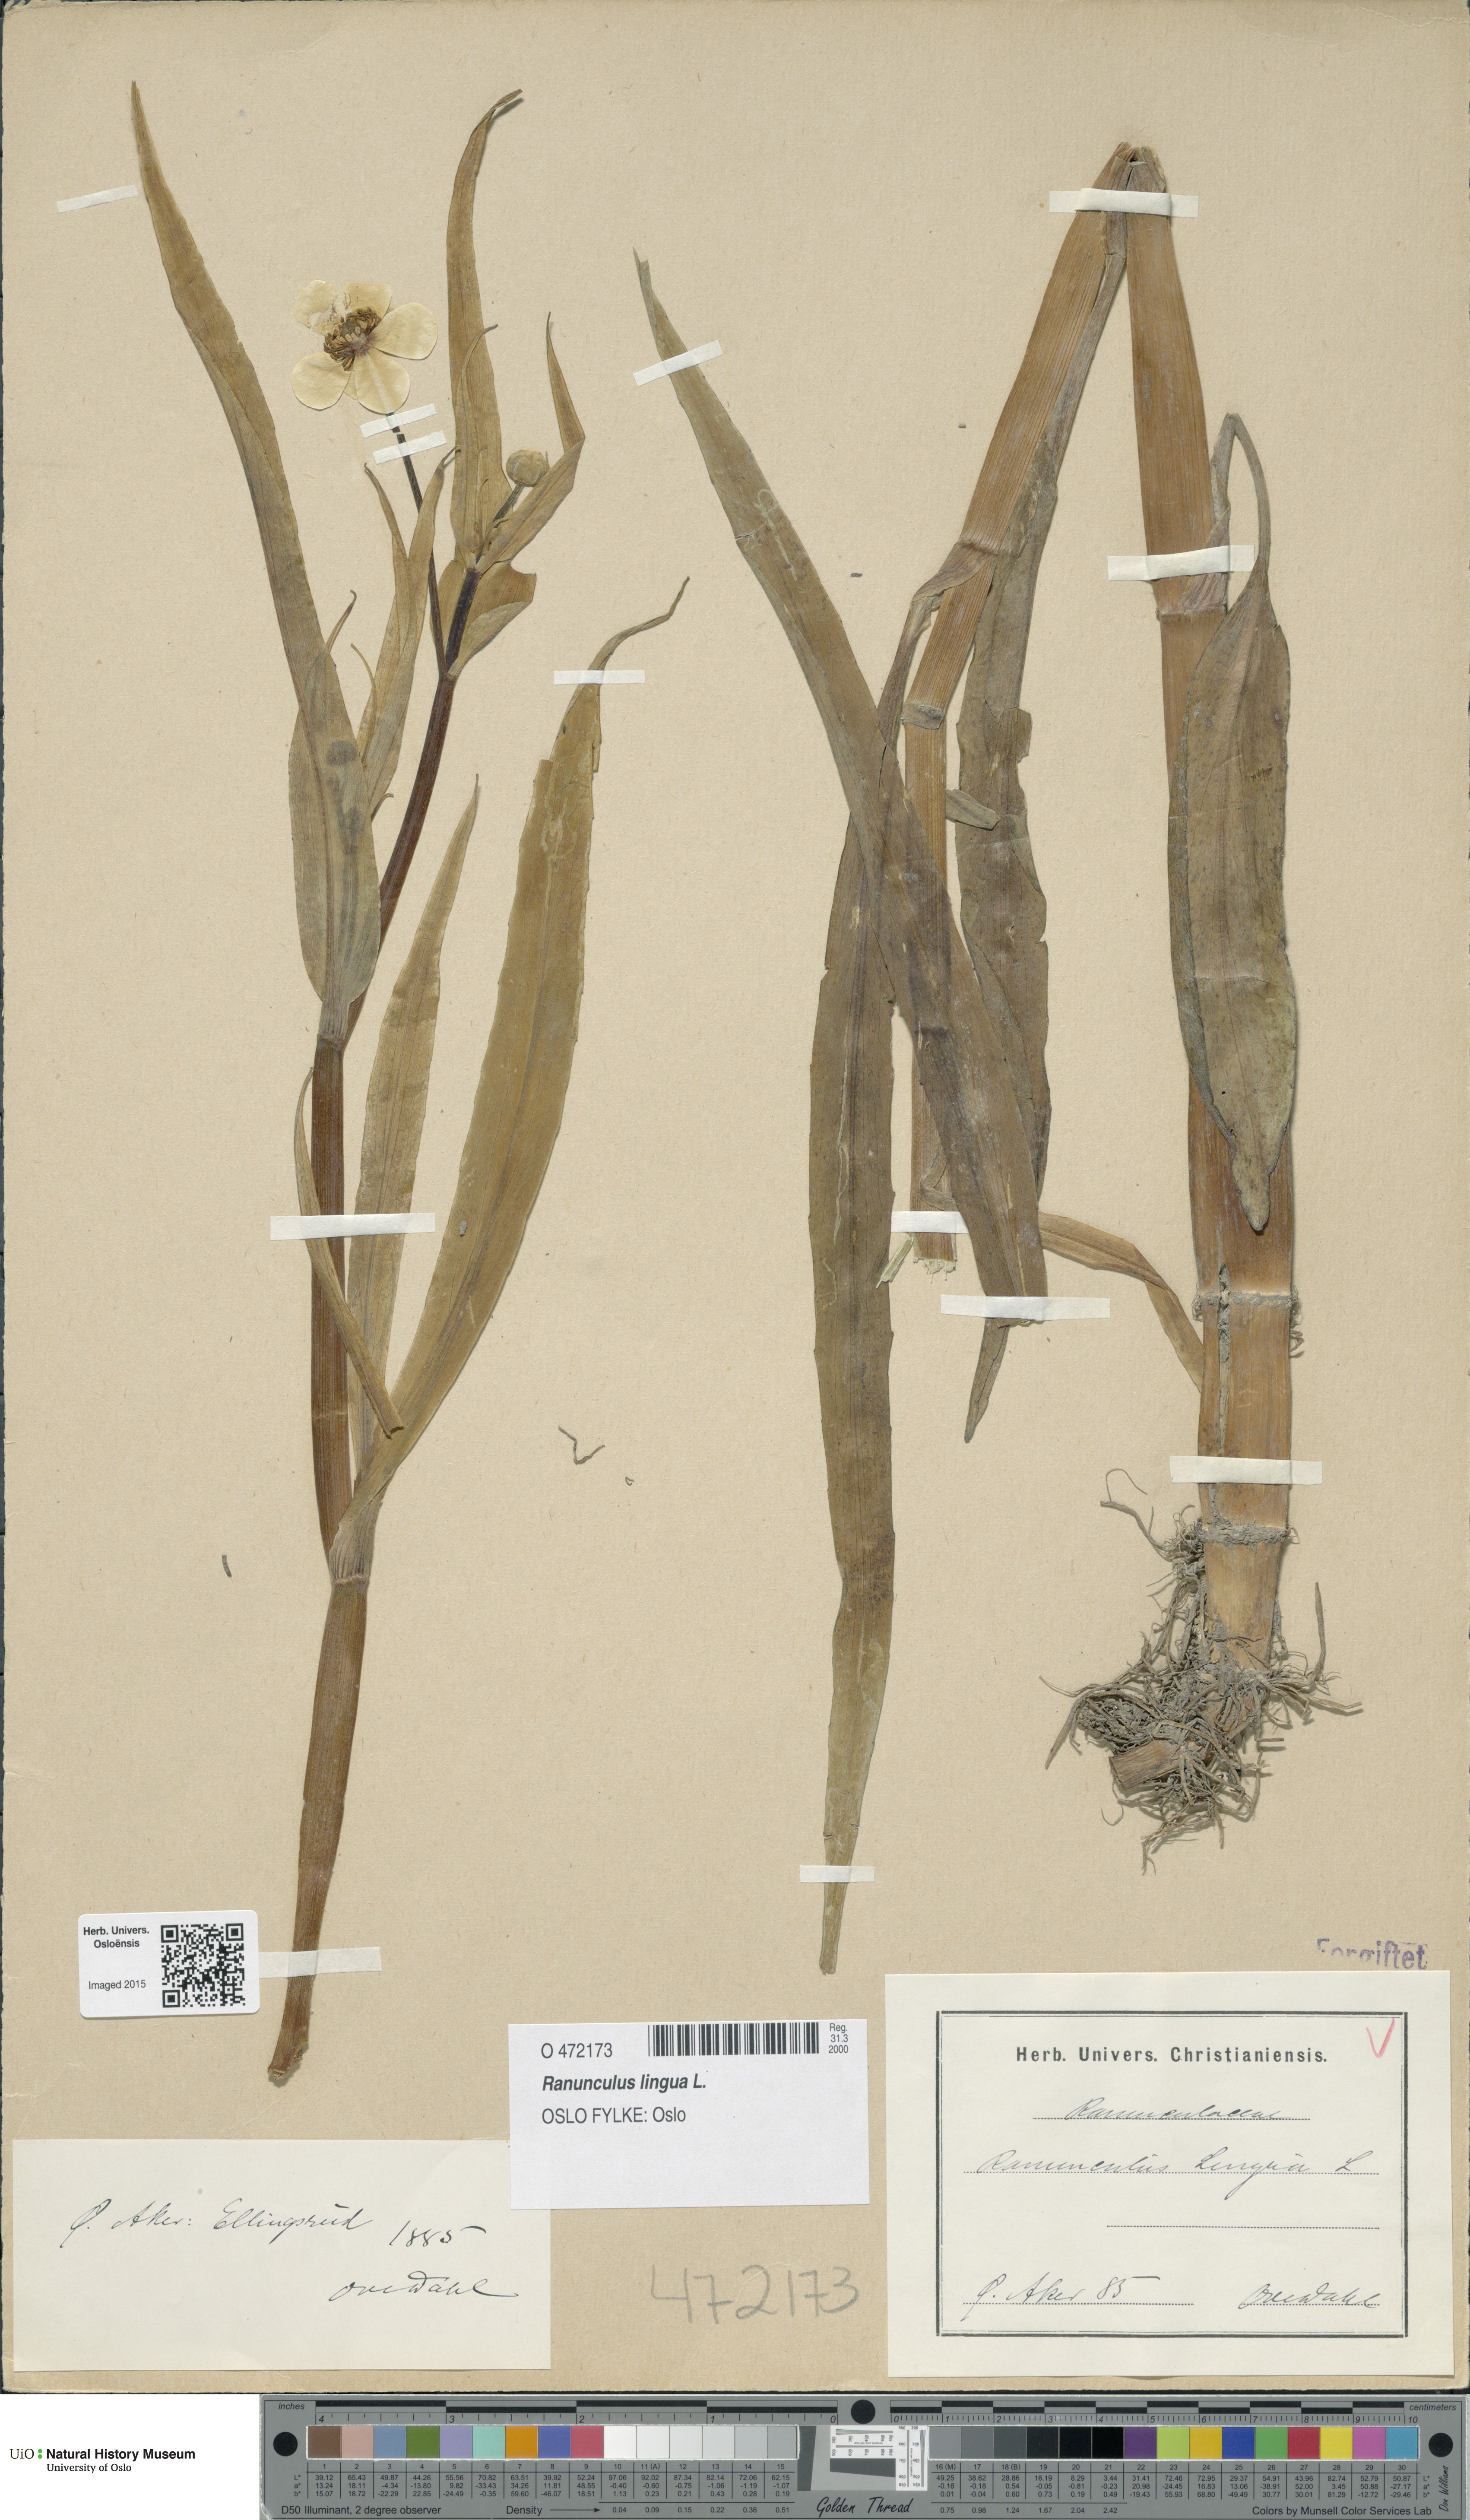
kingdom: Plantae
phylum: Tracheophyta
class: Magnoliopsida
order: Ranunculales
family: Ranunculaceae
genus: Ranunculus
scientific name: Ranunculus lingua
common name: Greater spearwort
